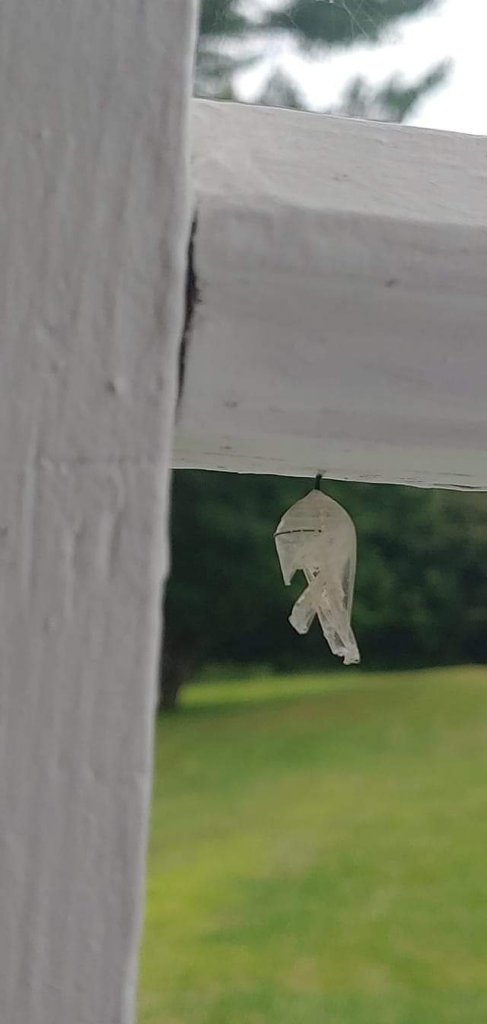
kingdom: Animalia
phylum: Arthropoda
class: Insecta
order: Lepidoptera
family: Nymphalidae
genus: Danaus
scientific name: Danaus plexippus
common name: Monarch
